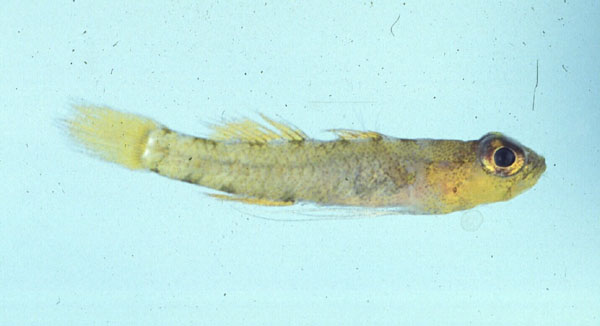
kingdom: Animalia
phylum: Chordata
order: Perciformes
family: Gobiidae
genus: Trimmatom
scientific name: Trimmatom zapotes
